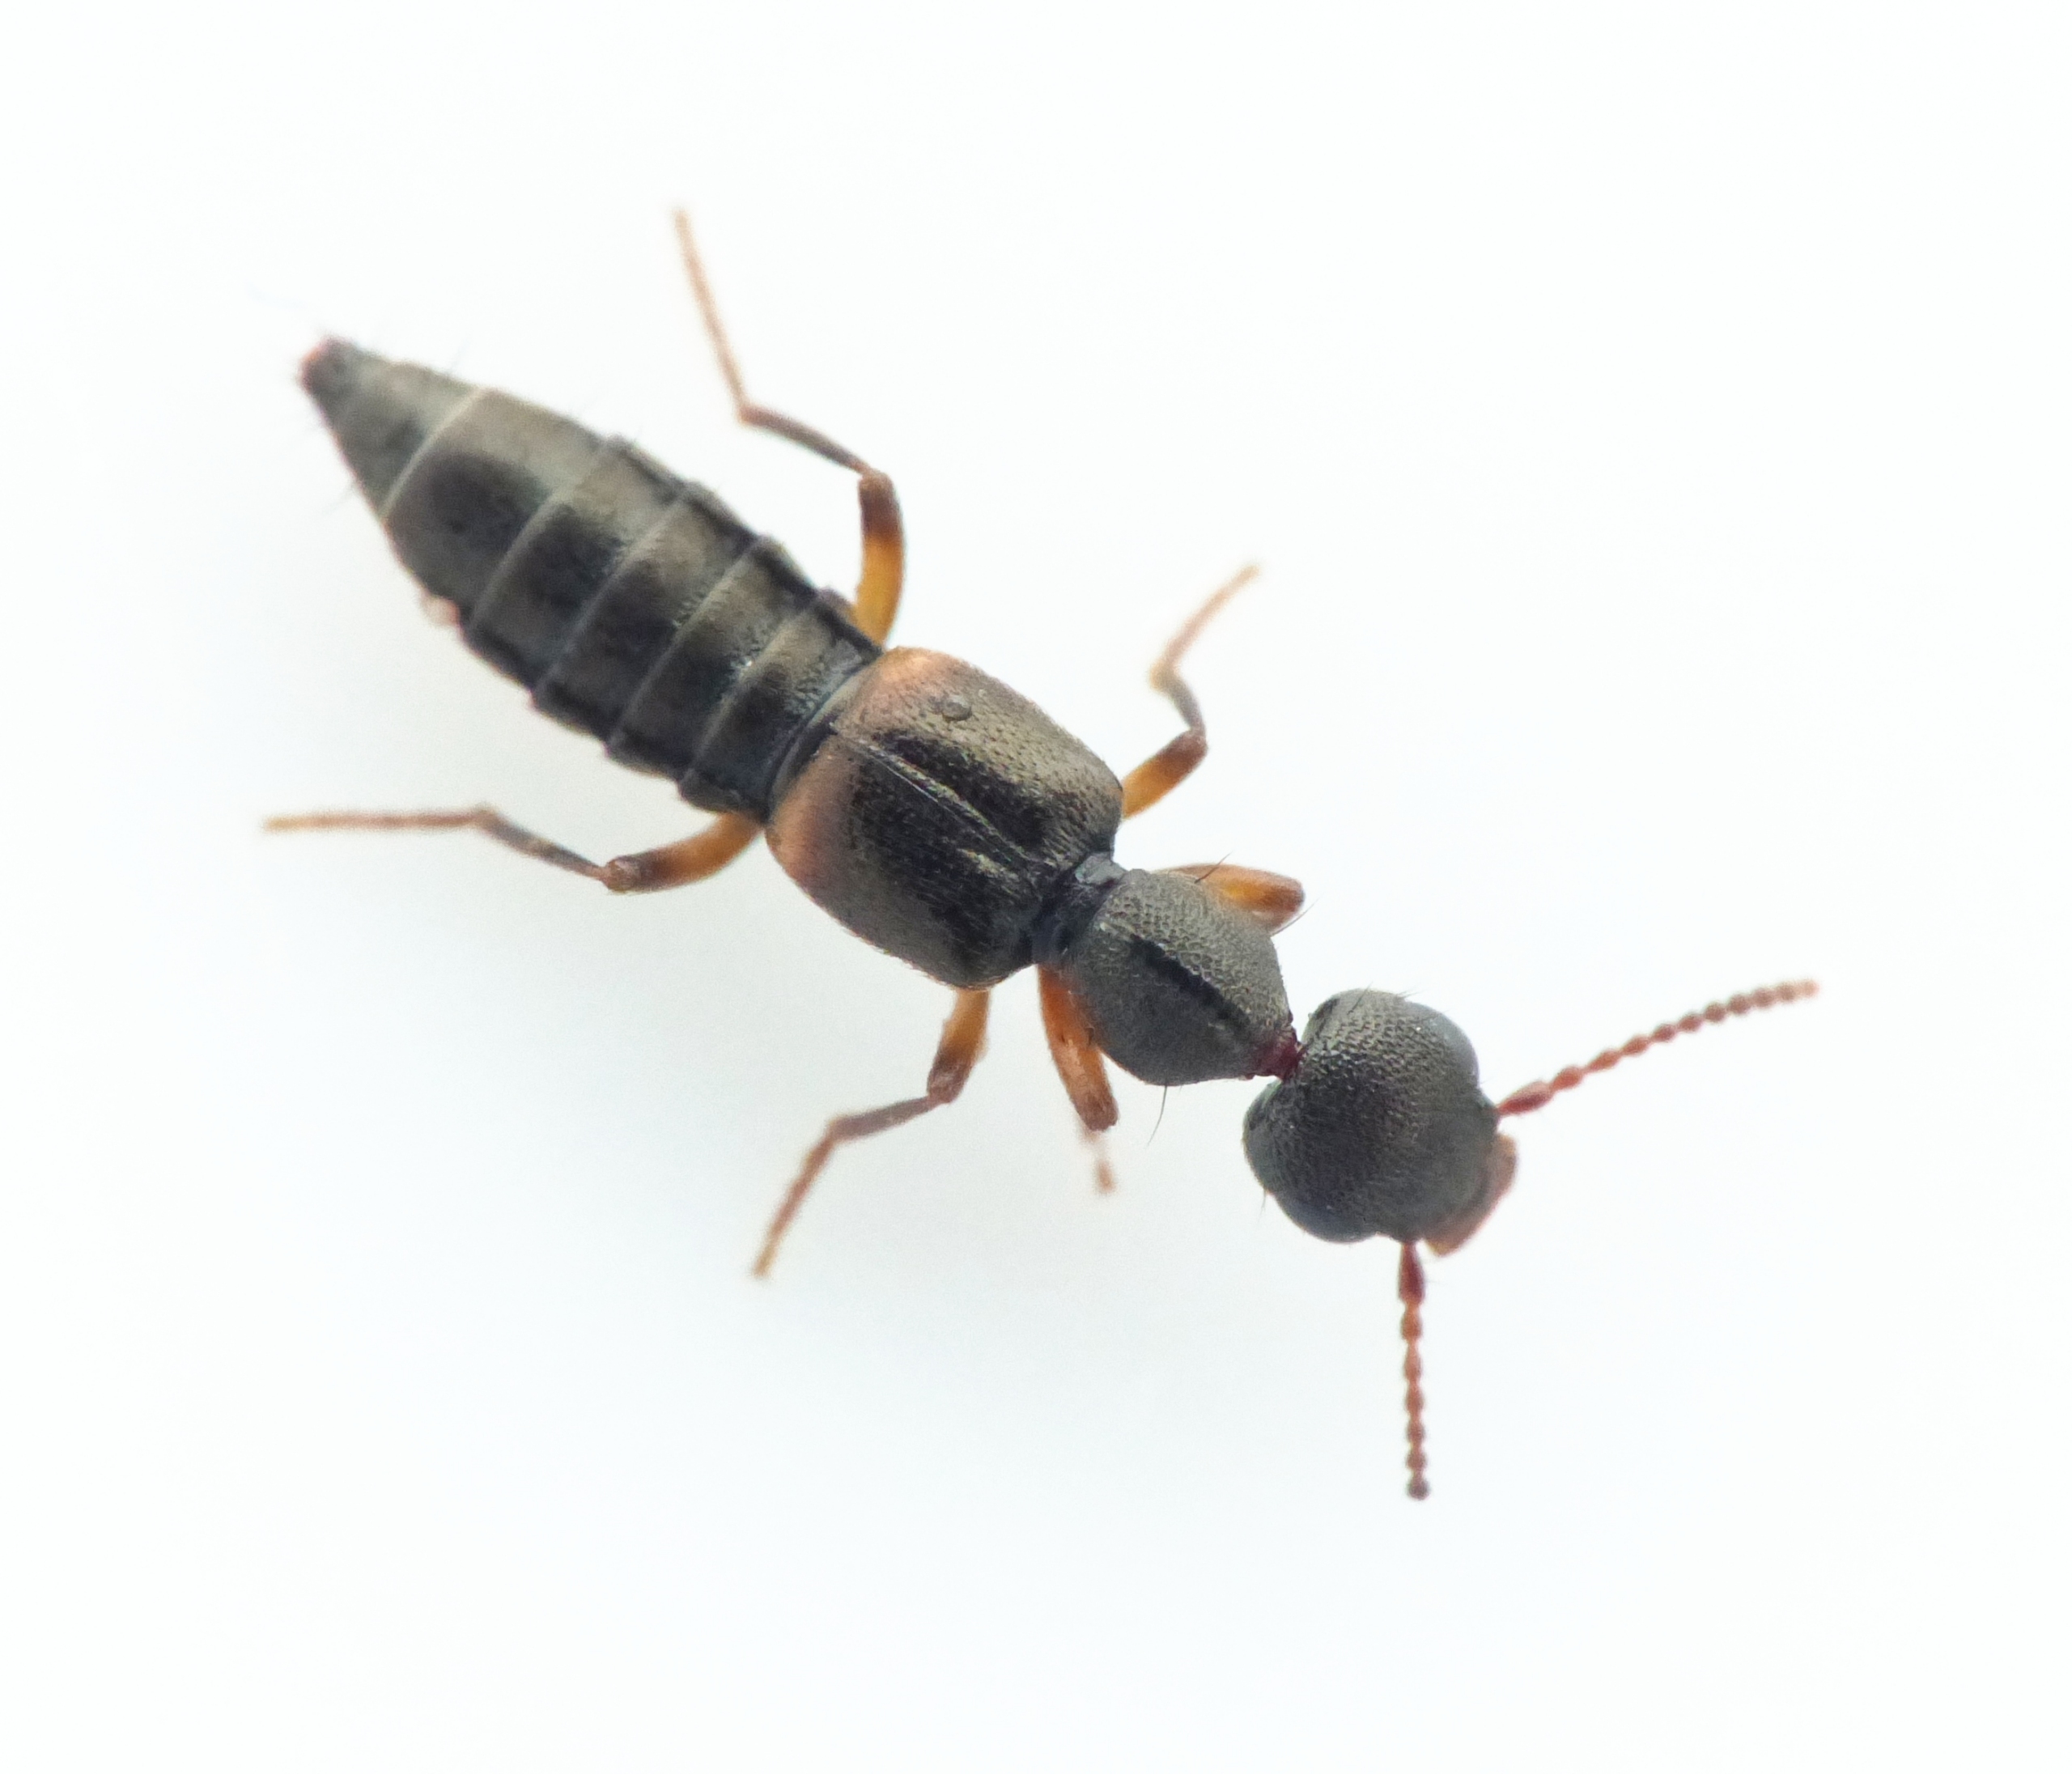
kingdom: Animalia
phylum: Arthropoda
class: Insecta
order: Coleoptera
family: Staphylinidae
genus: Rugilus
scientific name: Rugilus orbiculatus
